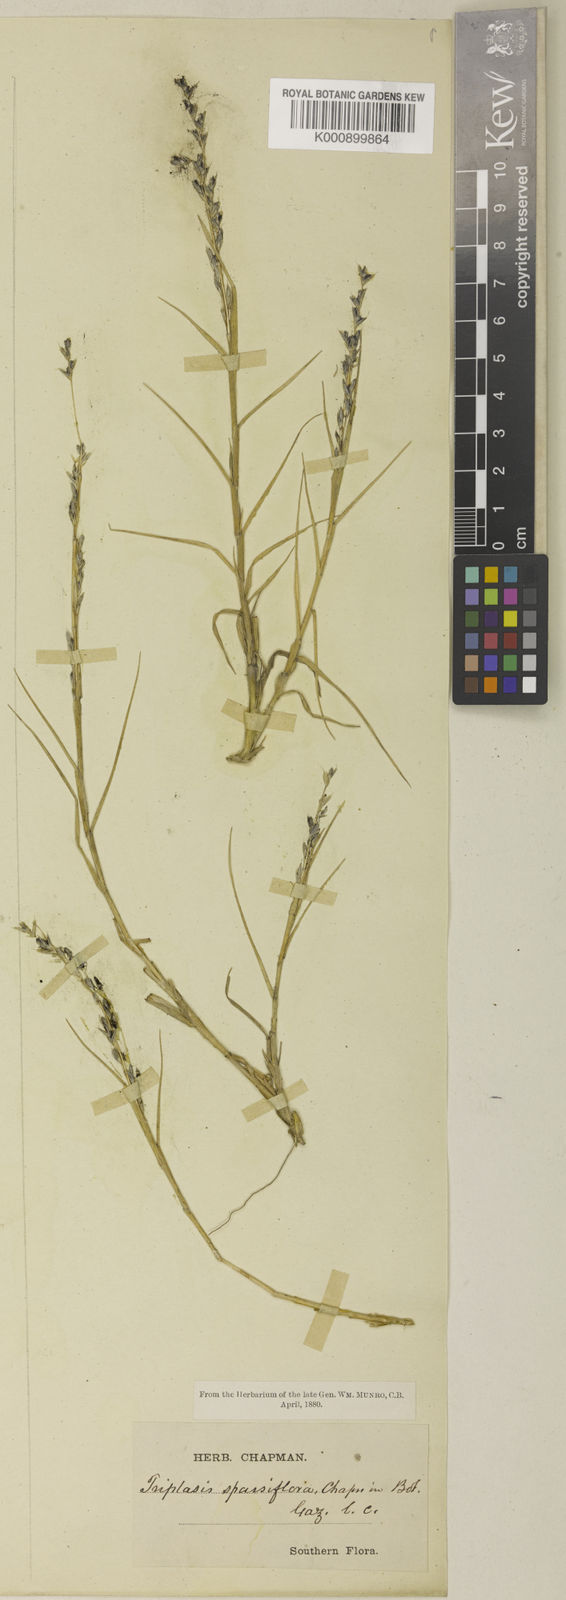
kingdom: Plantae
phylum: Tracheophyta
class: Liliopsida
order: Poales
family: Poaceae
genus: Triplasis
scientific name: Triplasis purpurea
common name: Purple sand grass
